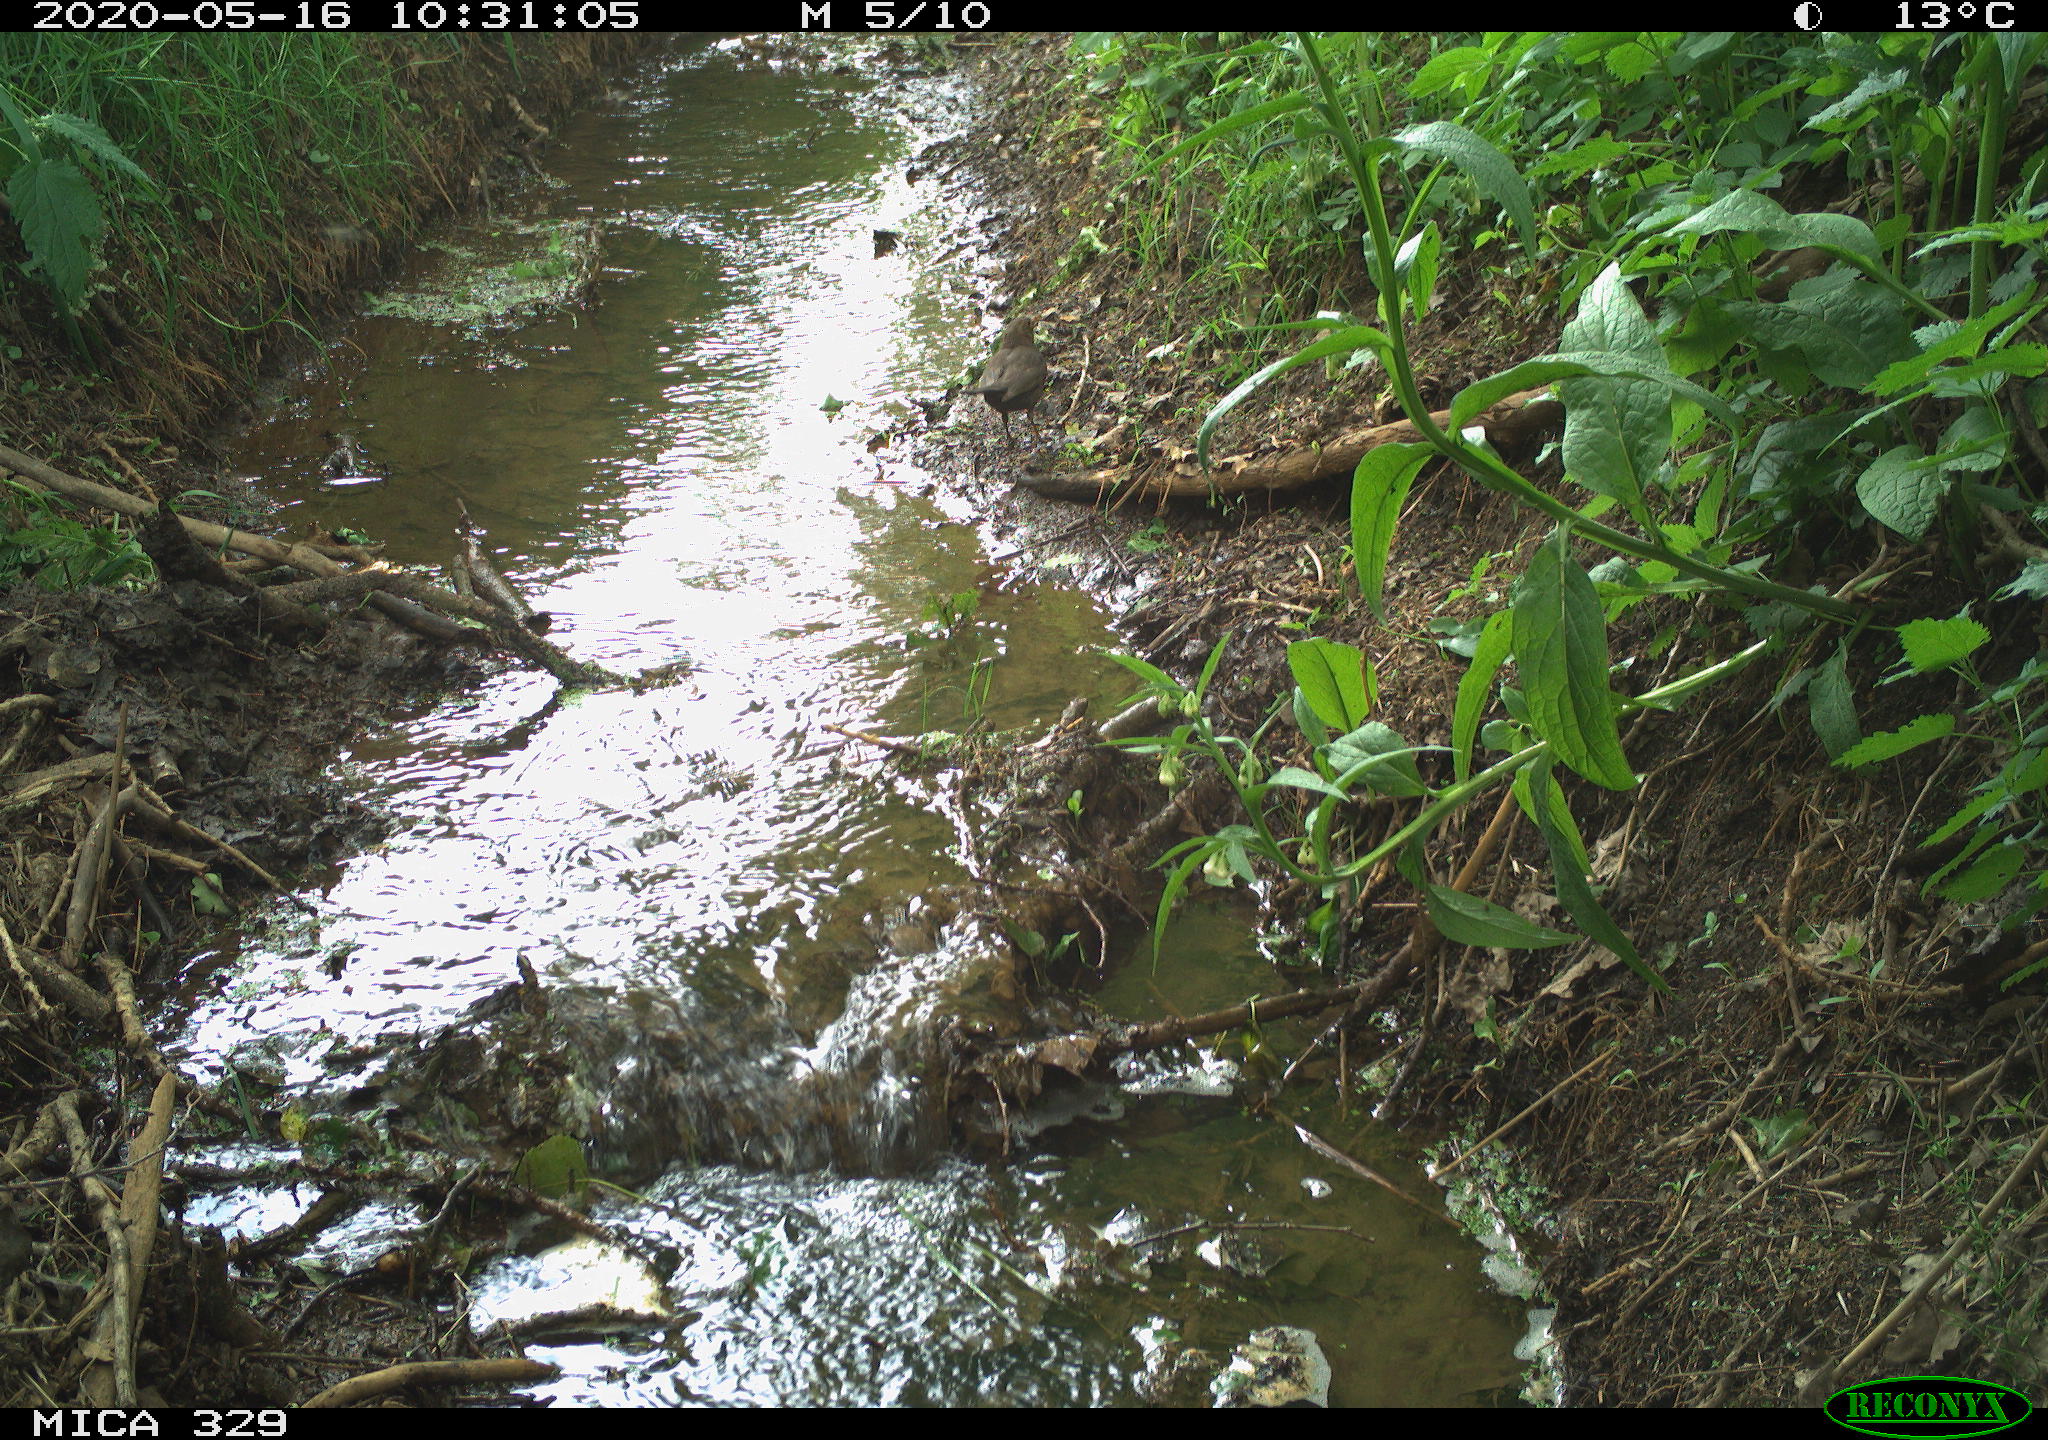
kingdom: Animalia
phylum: Chordata
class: Aves
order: Passeriformes
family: Turdidae
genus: Turdus
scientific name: Turdus merula
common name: Common blackbird
